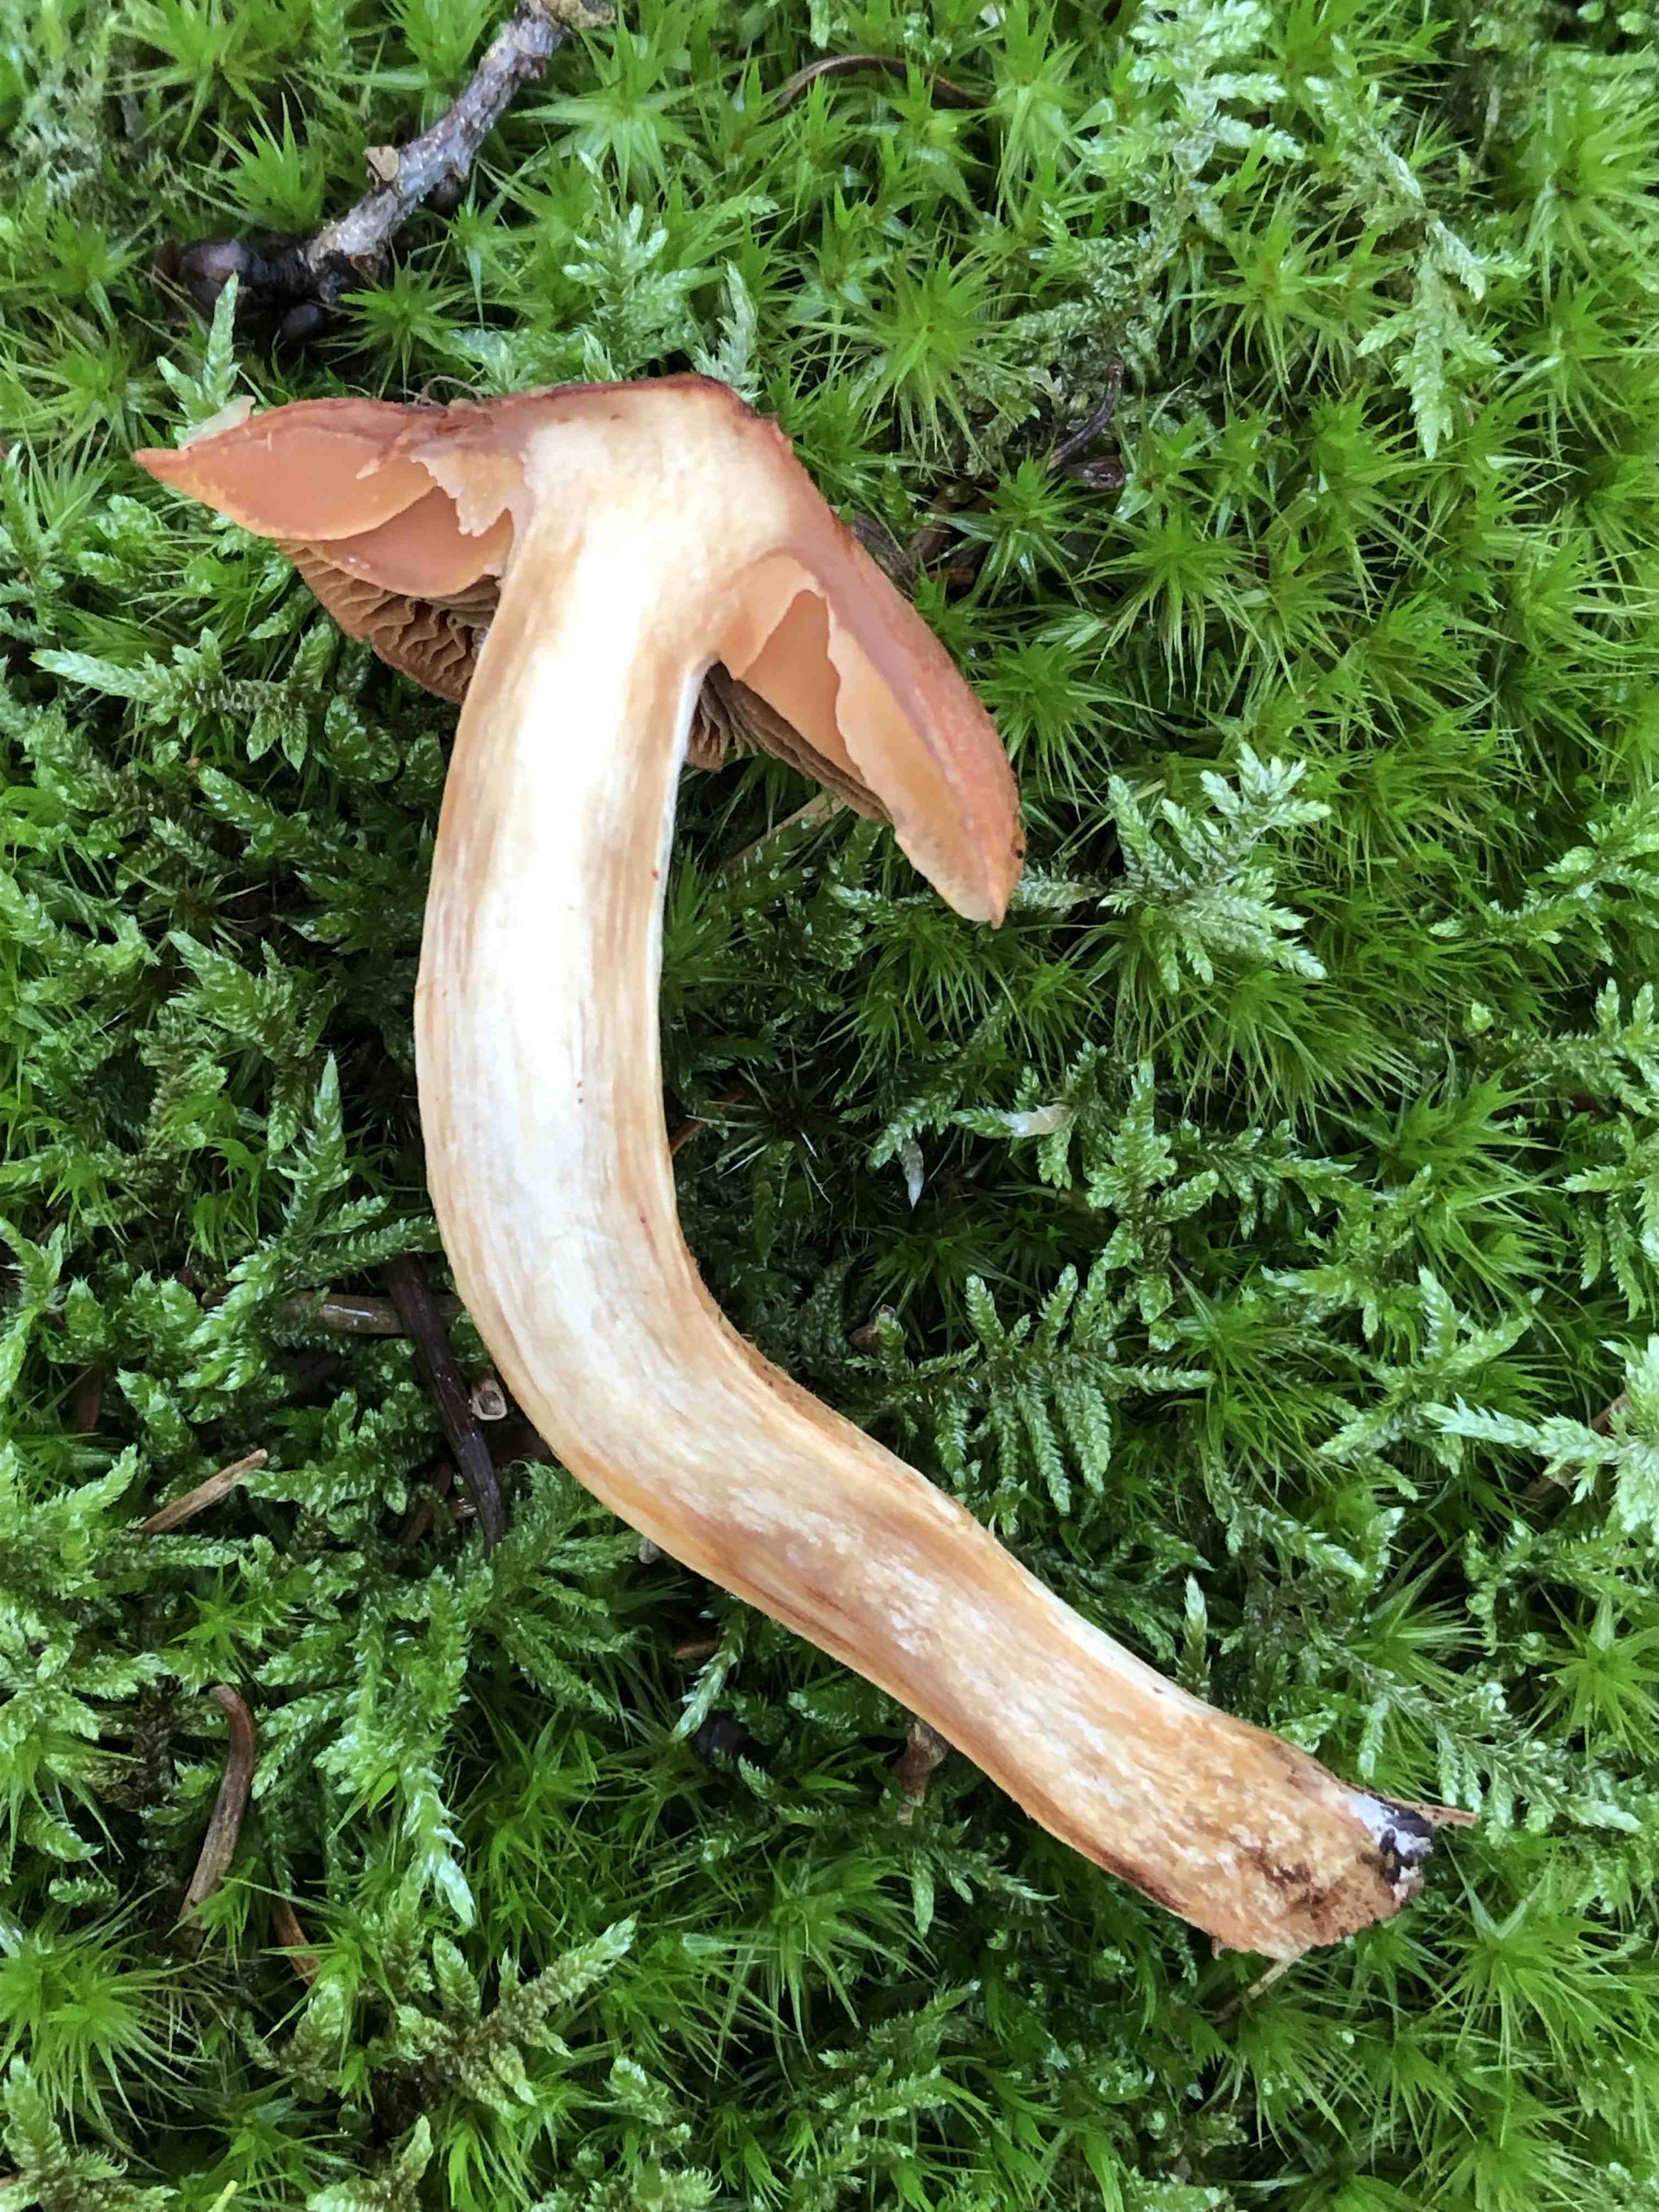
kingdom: Fungi
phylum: Basidiomycota
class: Agaricomycetes
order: Agaricales
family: Cortinariaceae
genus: Cortinarius
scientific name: Cortinarius rubellus
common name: puklet gift-slørhat
